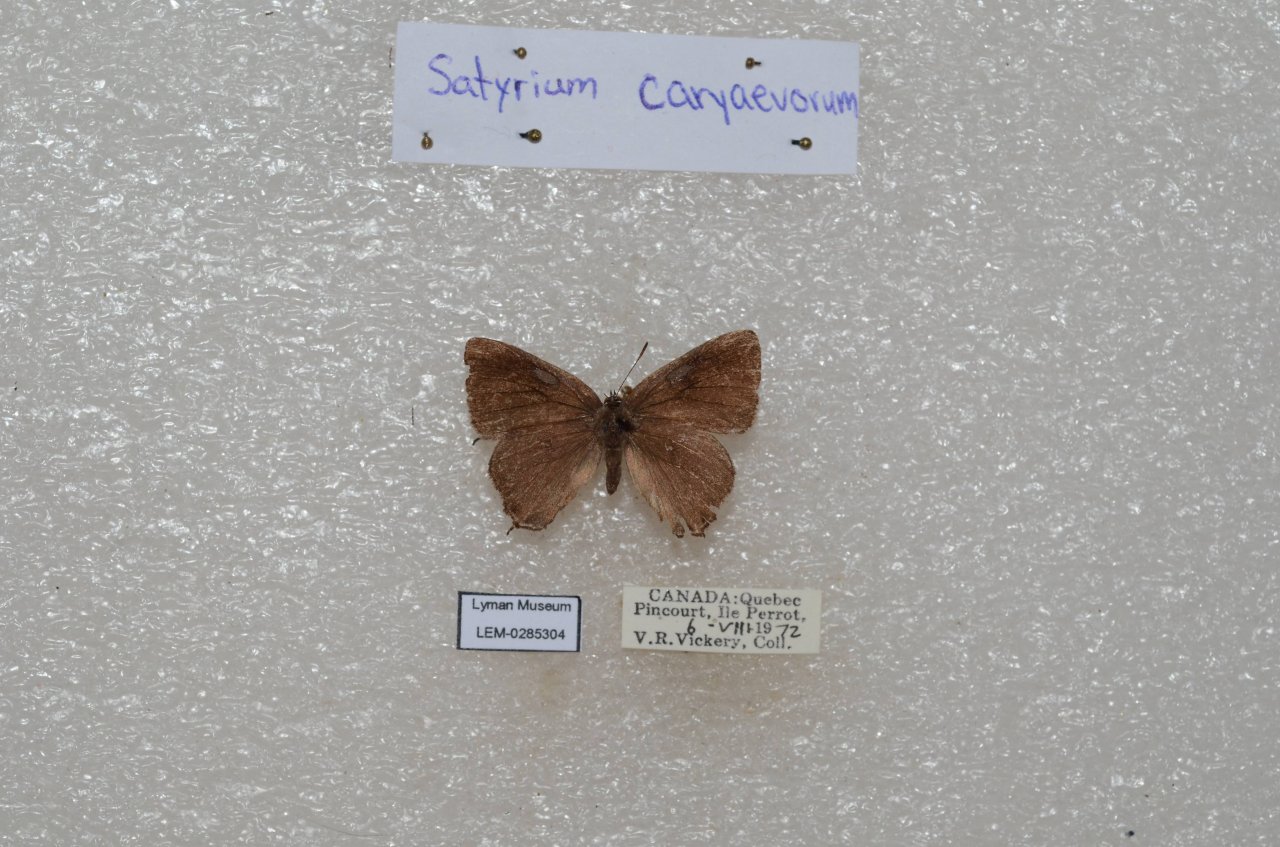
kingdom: Animalia
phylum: Arthropoda
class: Insecta
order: Lepidoptera
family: Lycaenidae
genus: Strymon
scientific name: Strymon caryaevorus
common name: Hickory Hairstreak
